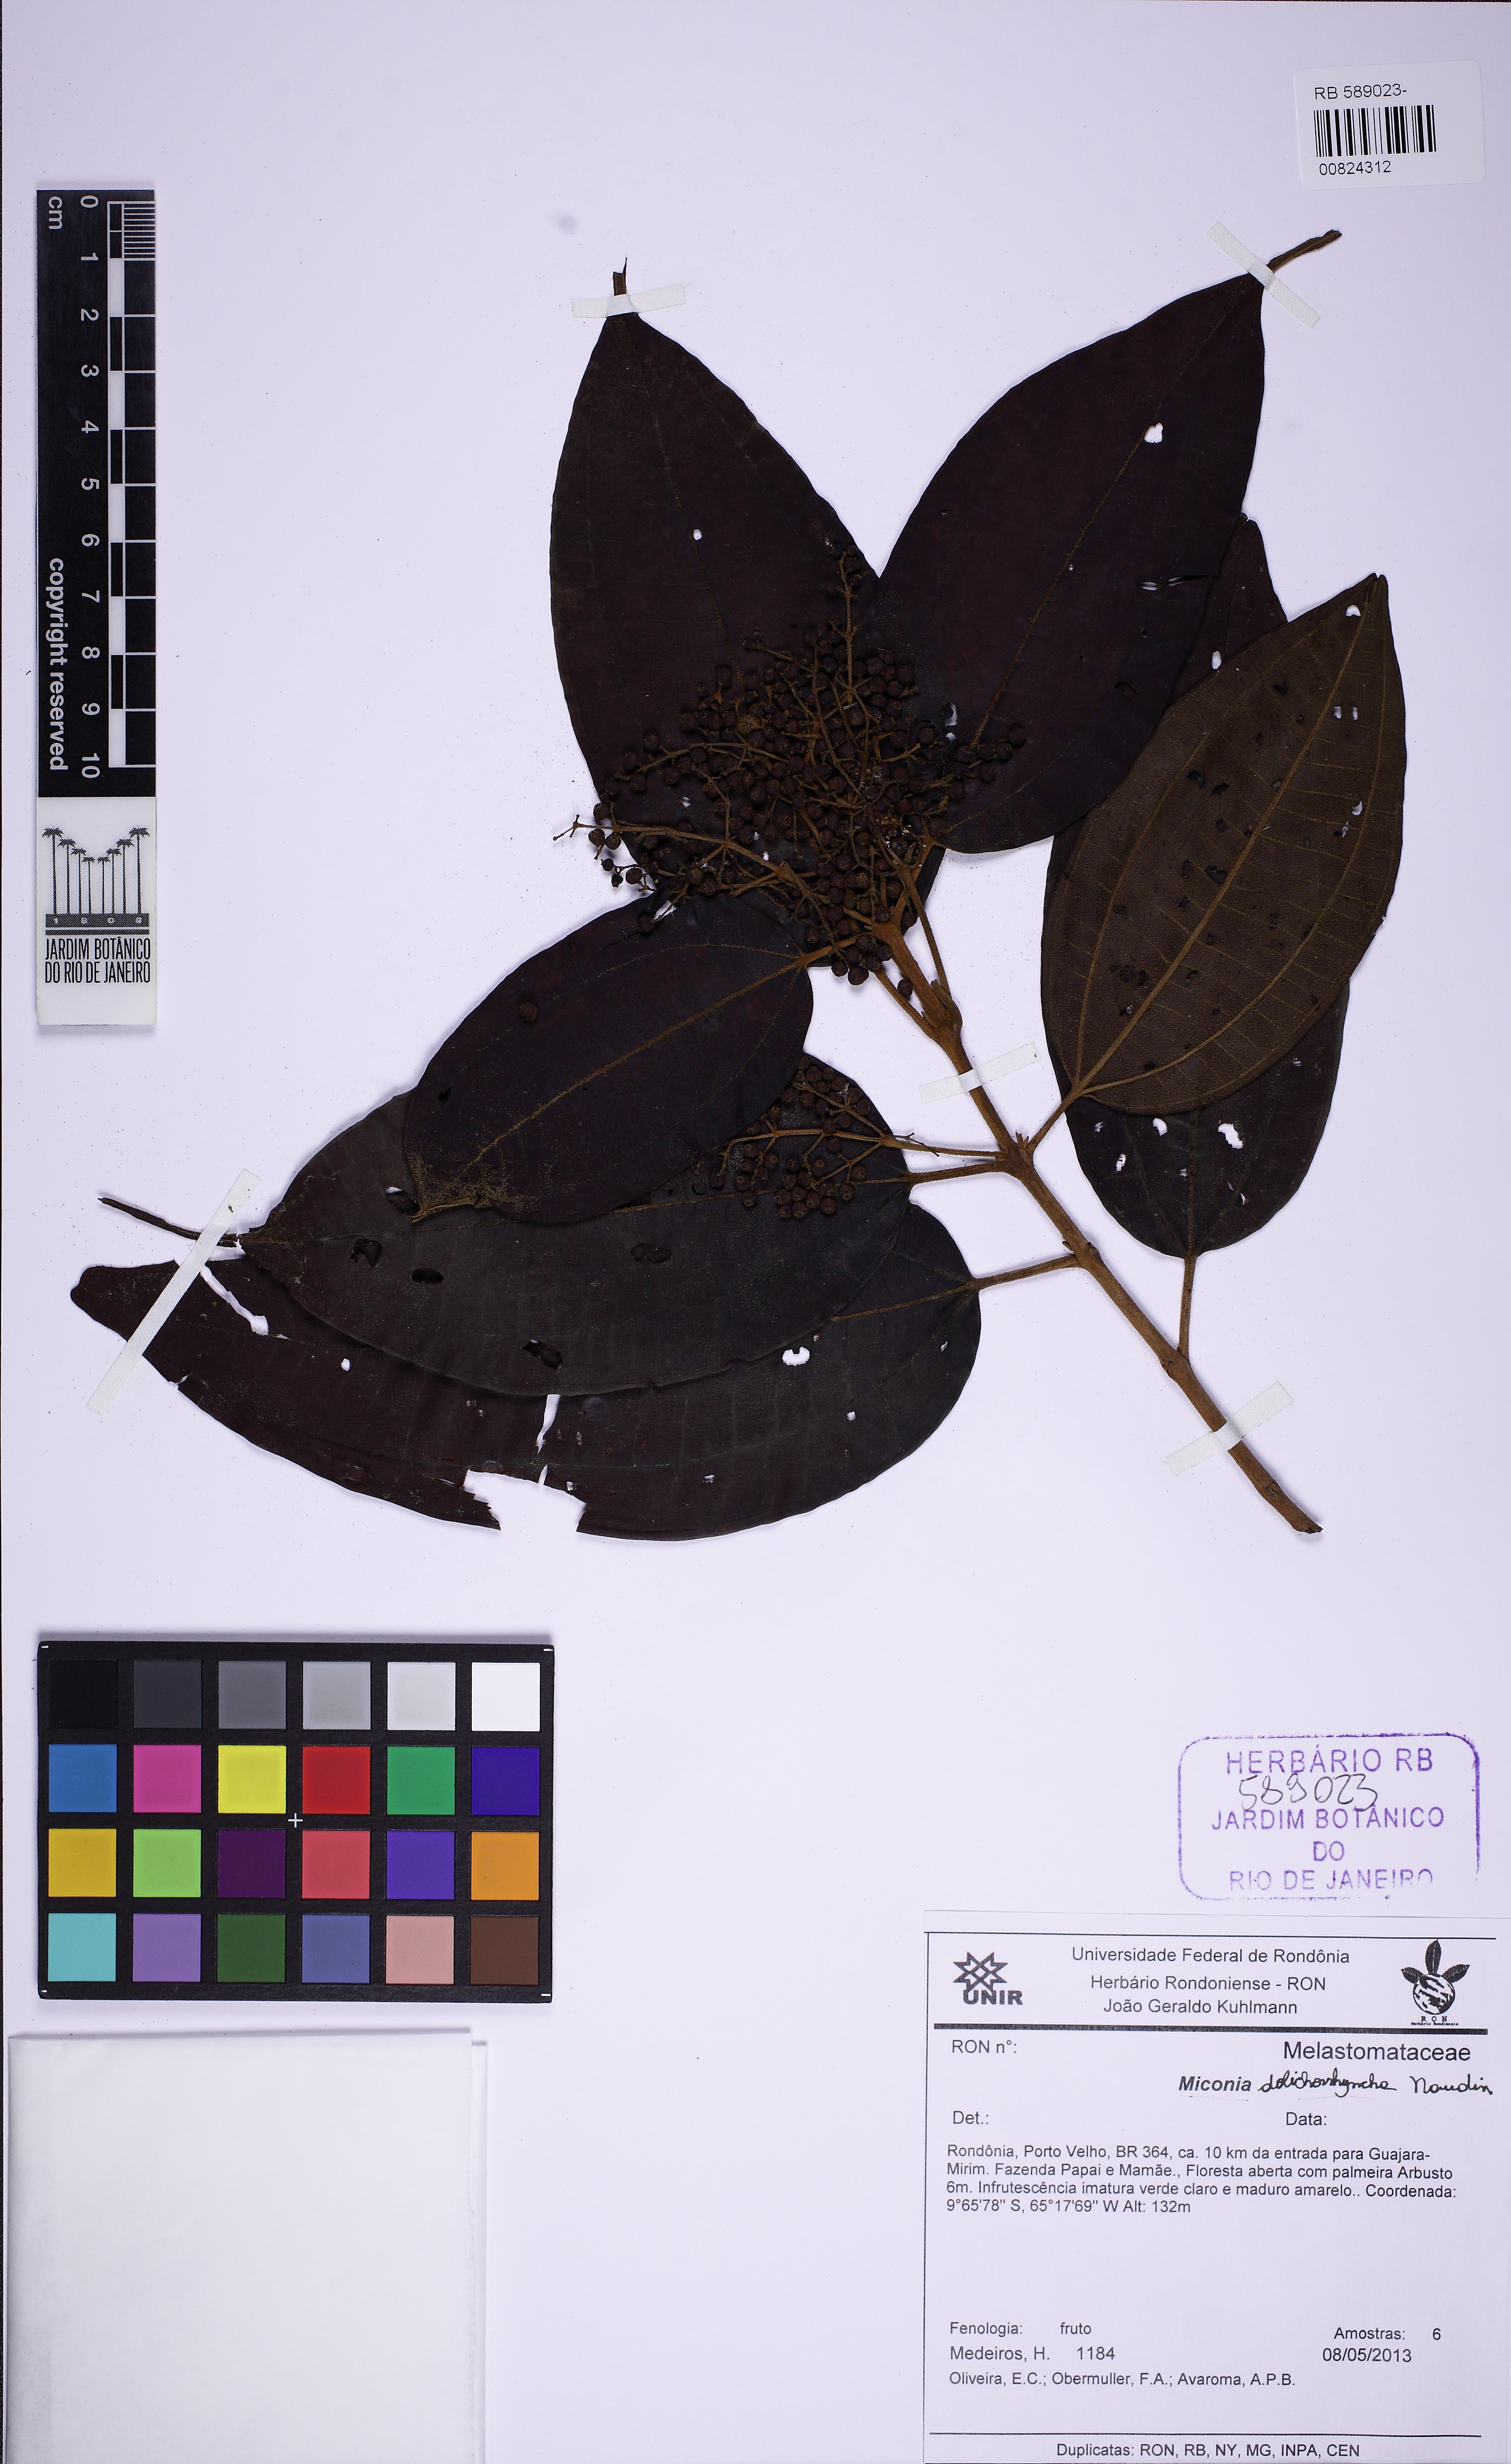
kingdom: Plantae
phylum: Tracheophyta
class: Magnoliopsida
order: Myrtales
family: Melastomataceae
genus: Miconia
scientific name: Miconia dolichorrhyncha
